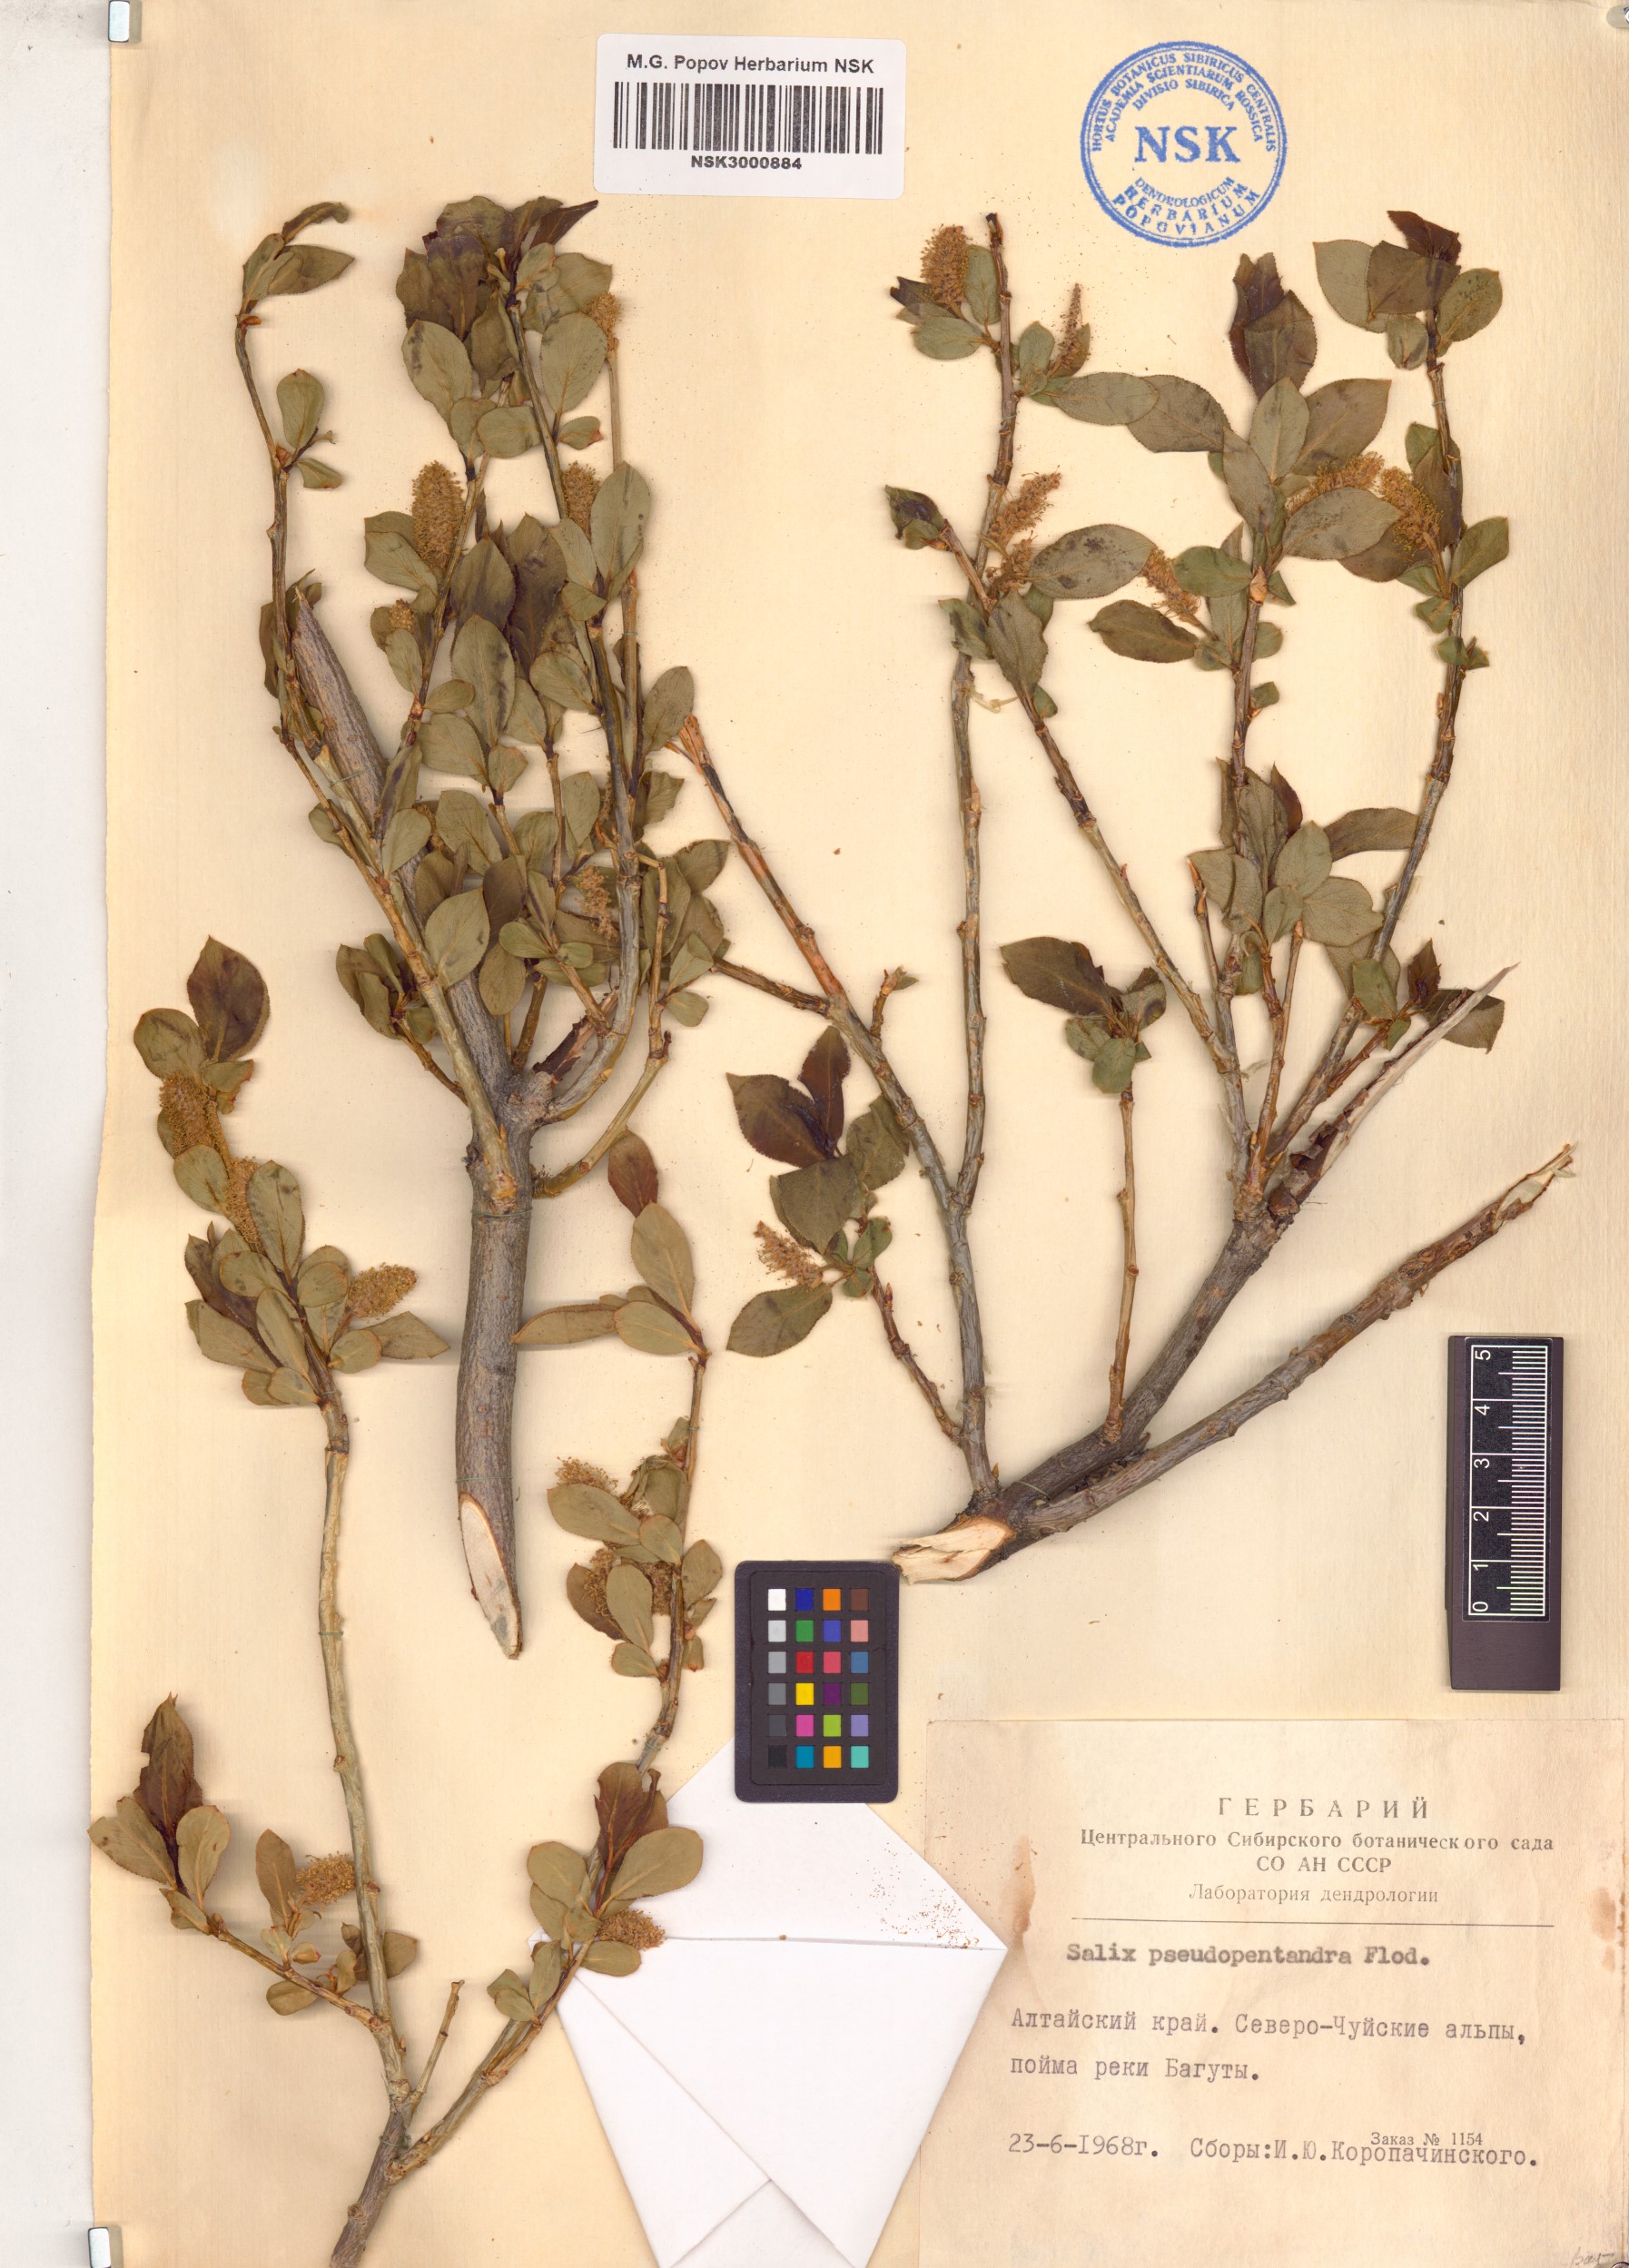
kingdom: Plantae
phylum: Tracheophyta
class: Magnoliopsida
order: Malpighiales
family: Salicaceae
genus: Salix
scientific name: Salix pseudopentandra
